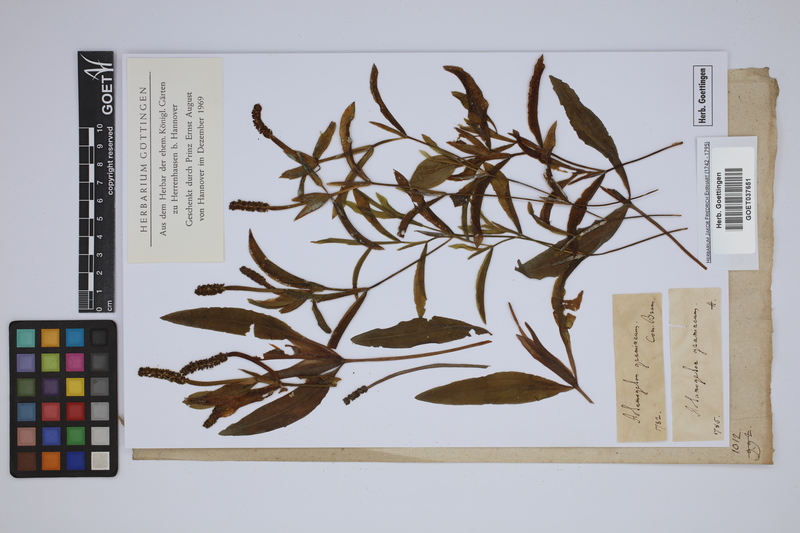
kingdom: Plantae
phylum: Tracheophyta
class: Liliopsida
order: Alismatales
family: Potamogetonaceae
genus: Potamogeton
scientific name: Potamogeton gramineus
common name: Various-leaved pondweed
